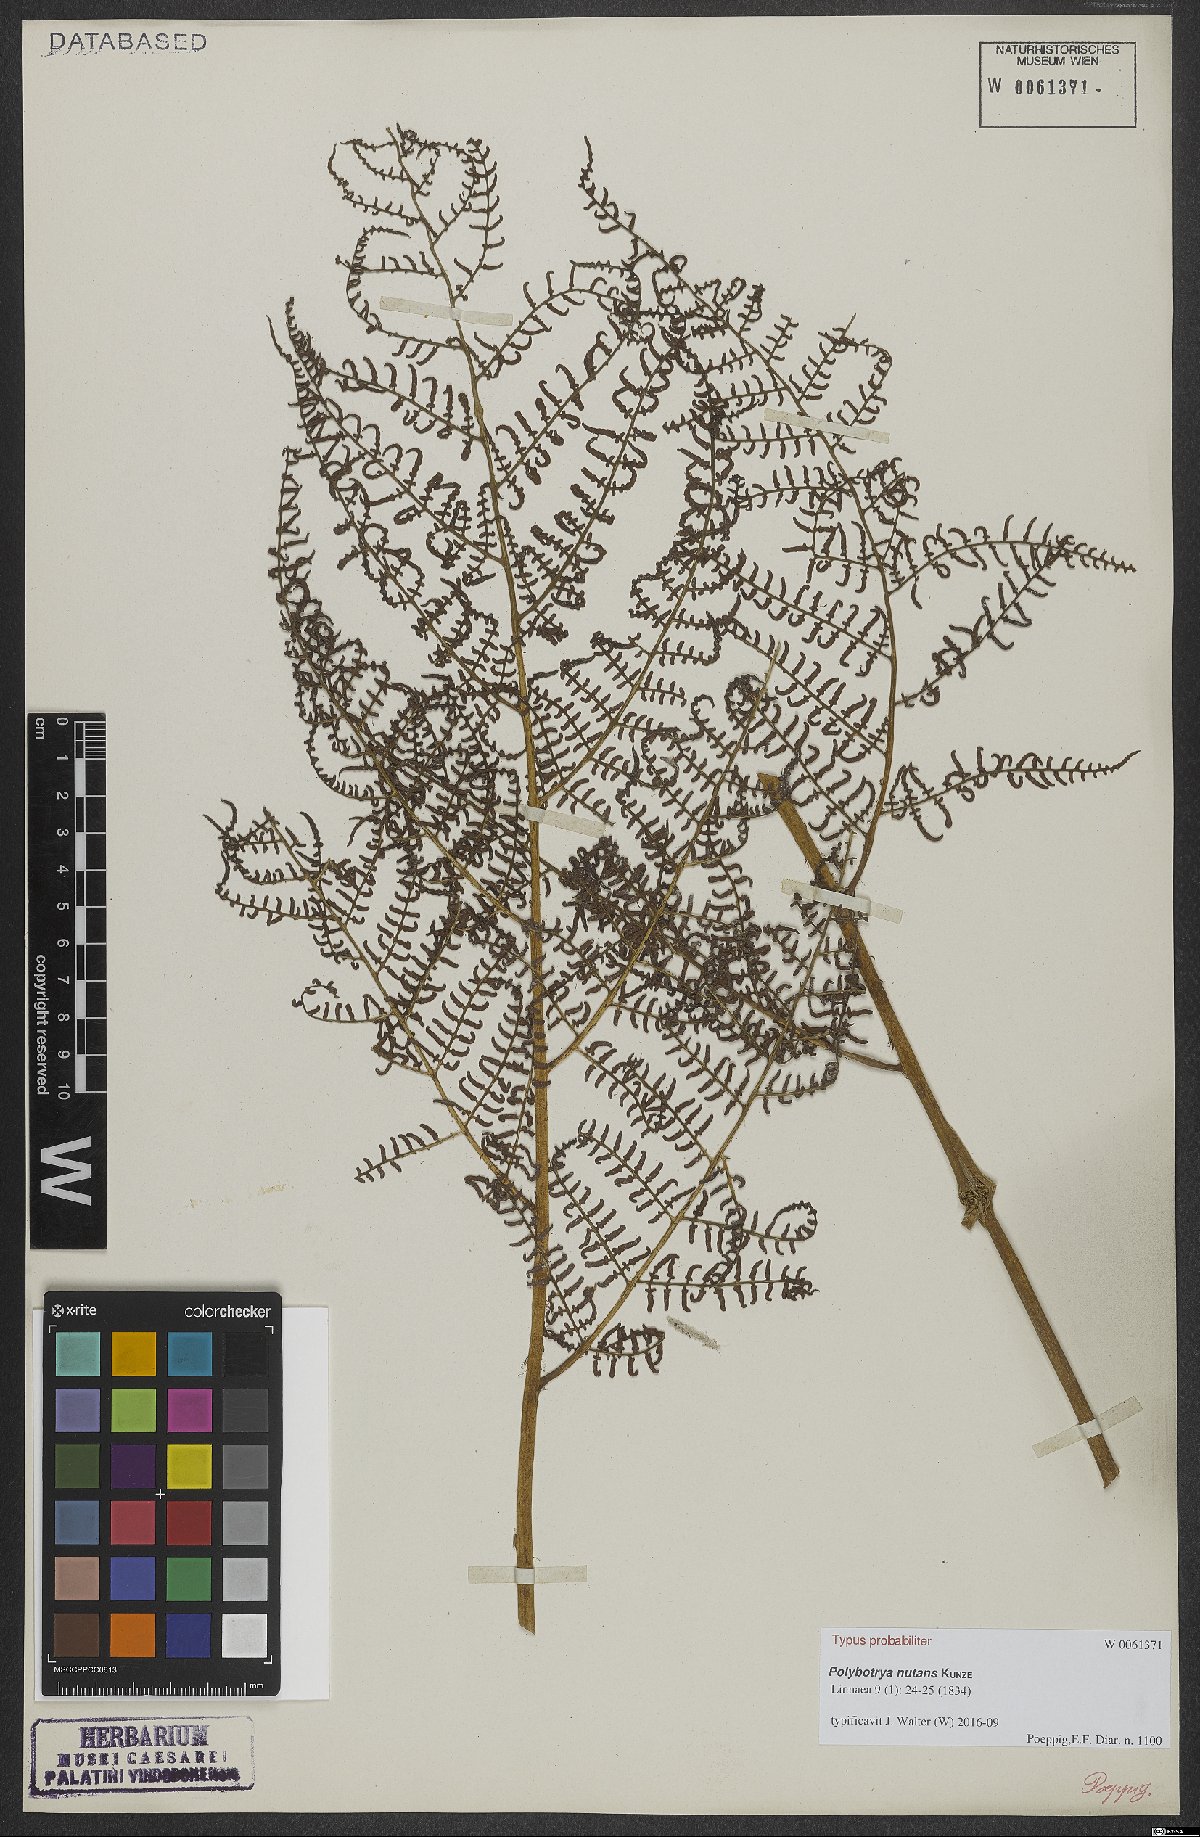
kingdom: Plantae
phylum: Tracheophyta
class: Polypodiopsida
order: Polypodiales
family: Dryopteridaceae
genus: Polybotrya
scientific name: Polybotrya nutans
